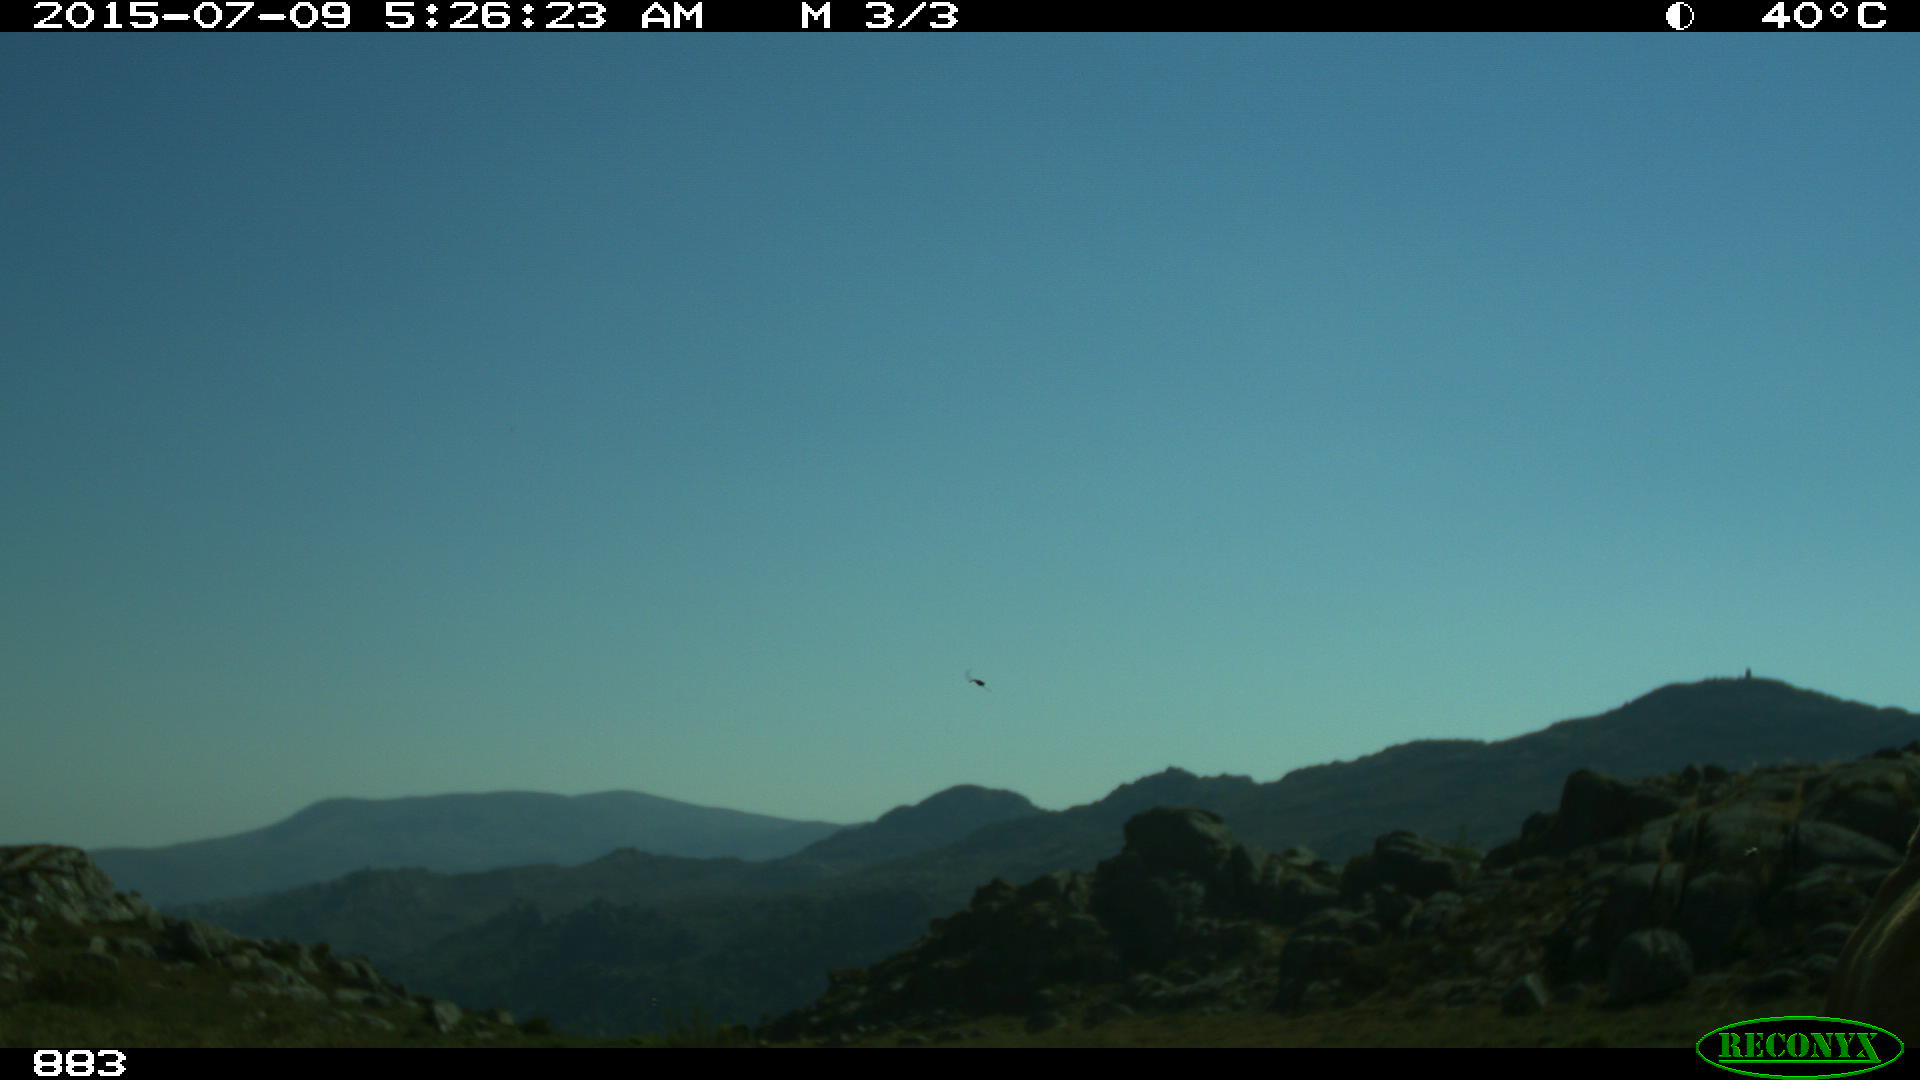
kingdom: Animalia
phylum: Chordata
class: Mammalia
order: Artiodactyla
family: Bovidae
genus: Bos
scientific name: Bos taurus
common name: Domesticated cattle
